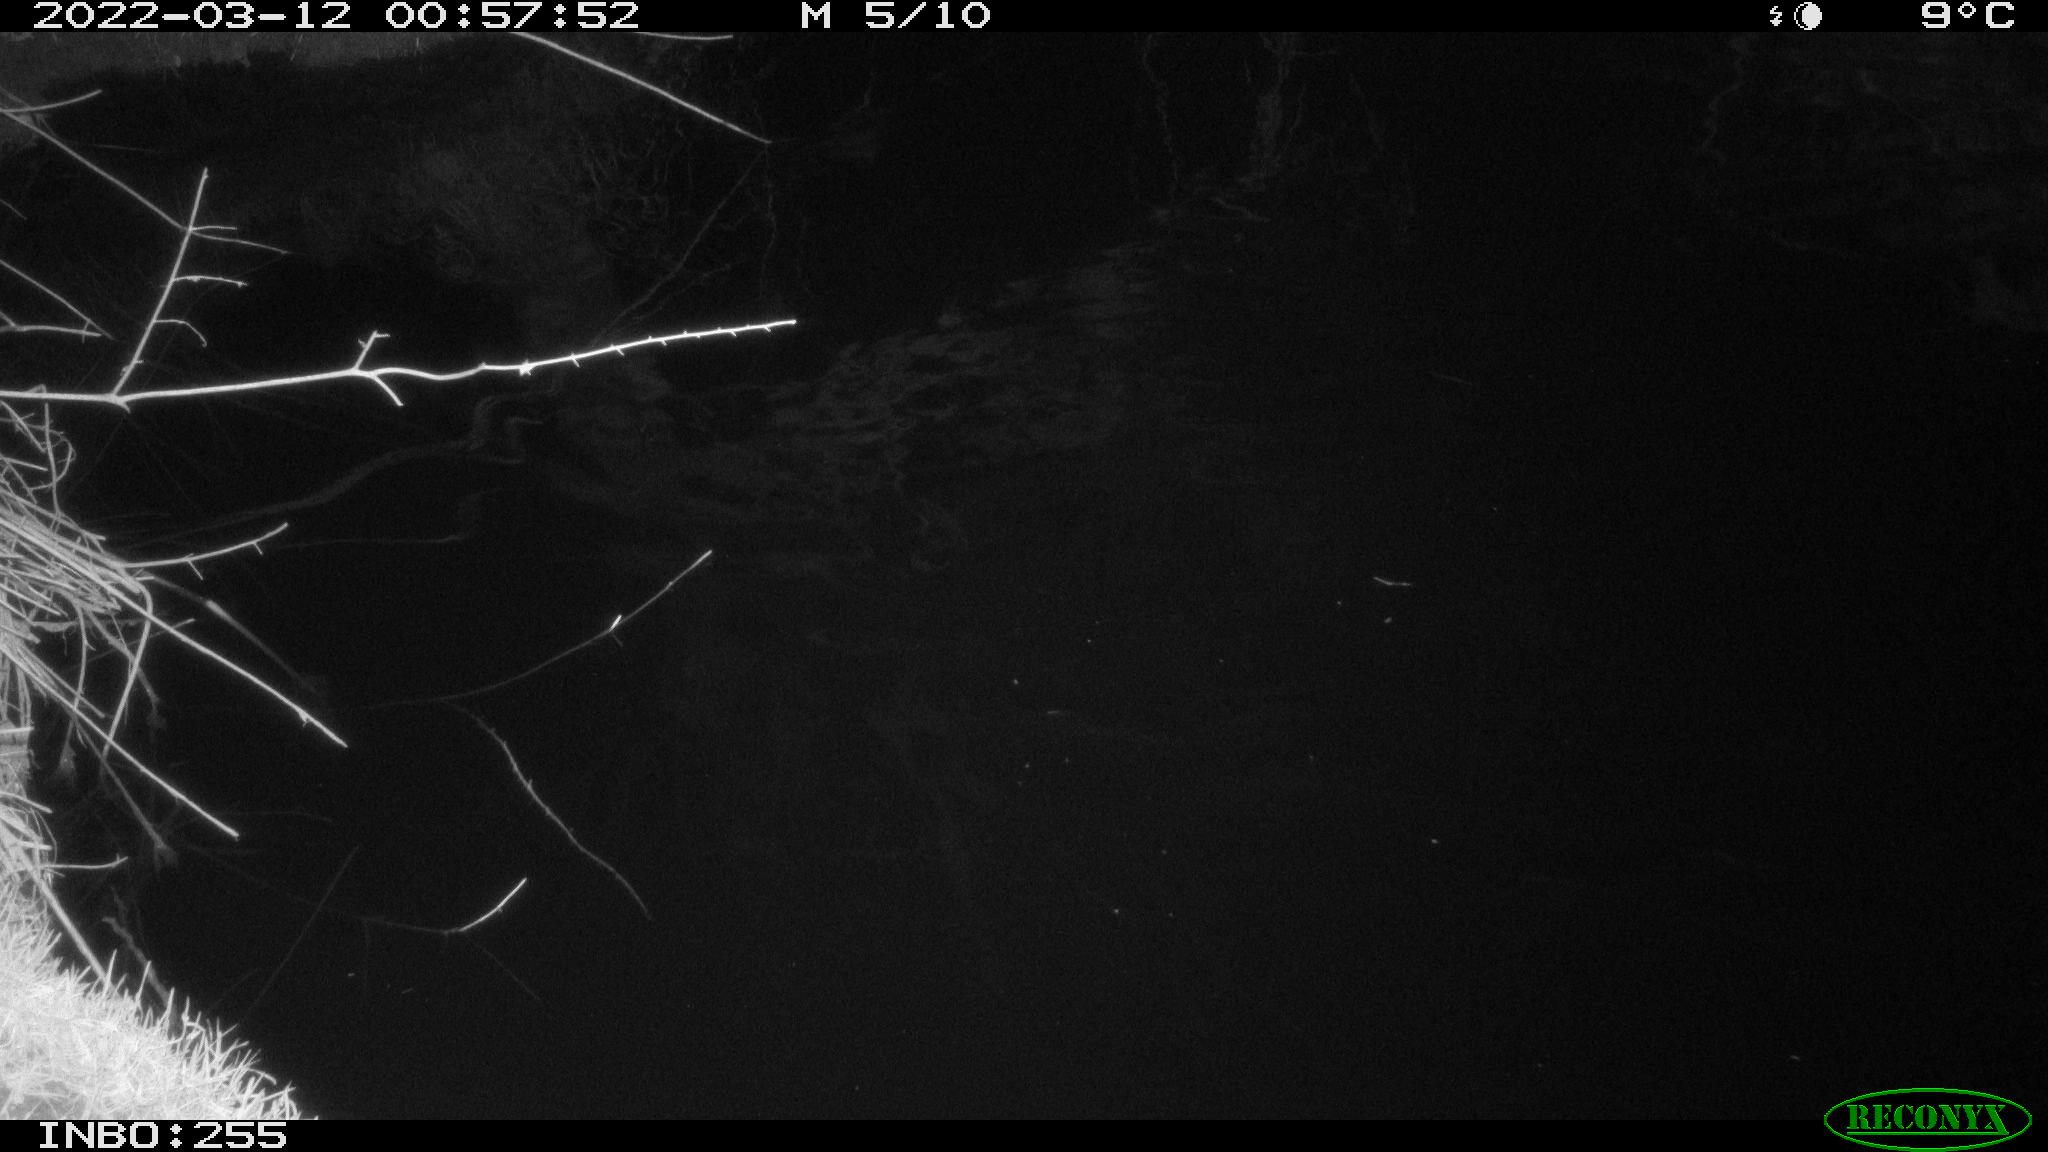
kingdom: Animalia
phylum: Chordata
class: Aves
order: Anseriformes
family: Anatidae
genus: Anas
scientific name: Anas platyrhynchos
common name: Mallard
